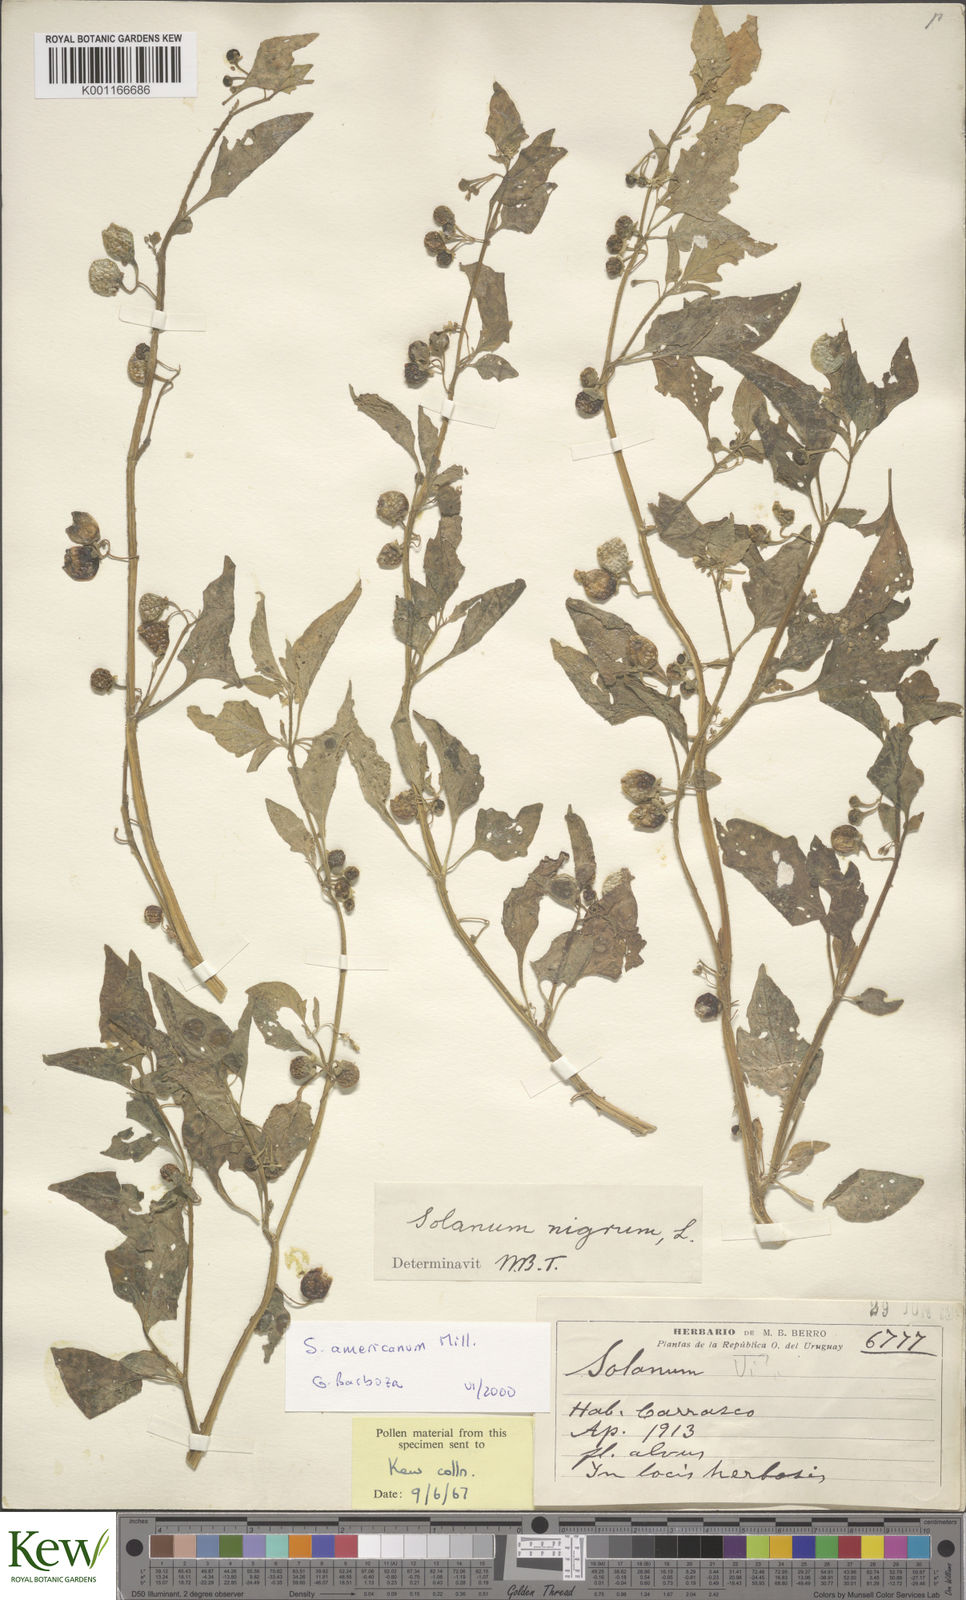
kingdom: Plantae
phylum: Tracheophyta
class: Magnoliopsida
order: Solanales
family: Solanaceae
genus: Solanum
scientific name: Solanum americanum
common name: American black nightshade
